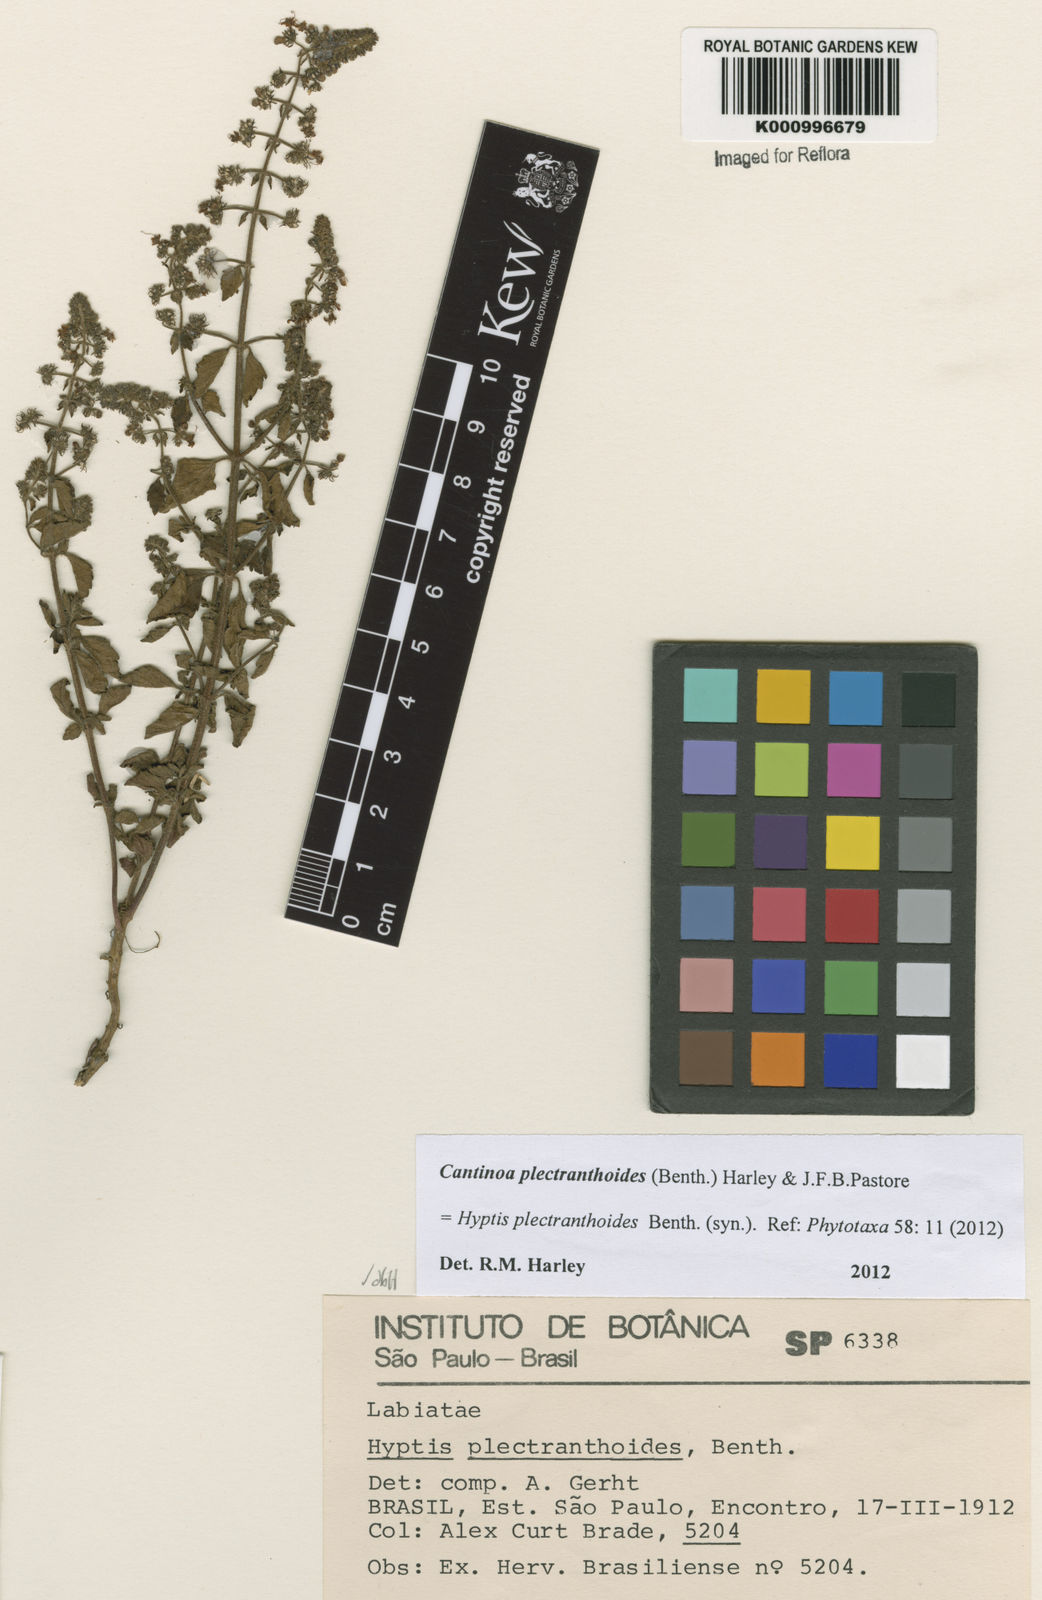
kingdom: Plantae
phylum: Tracheophyta
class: Magnoliopsida
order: Lamiales
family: Lamiaceae
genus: Cantinoa
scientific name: Cantinoa plectranthoides
